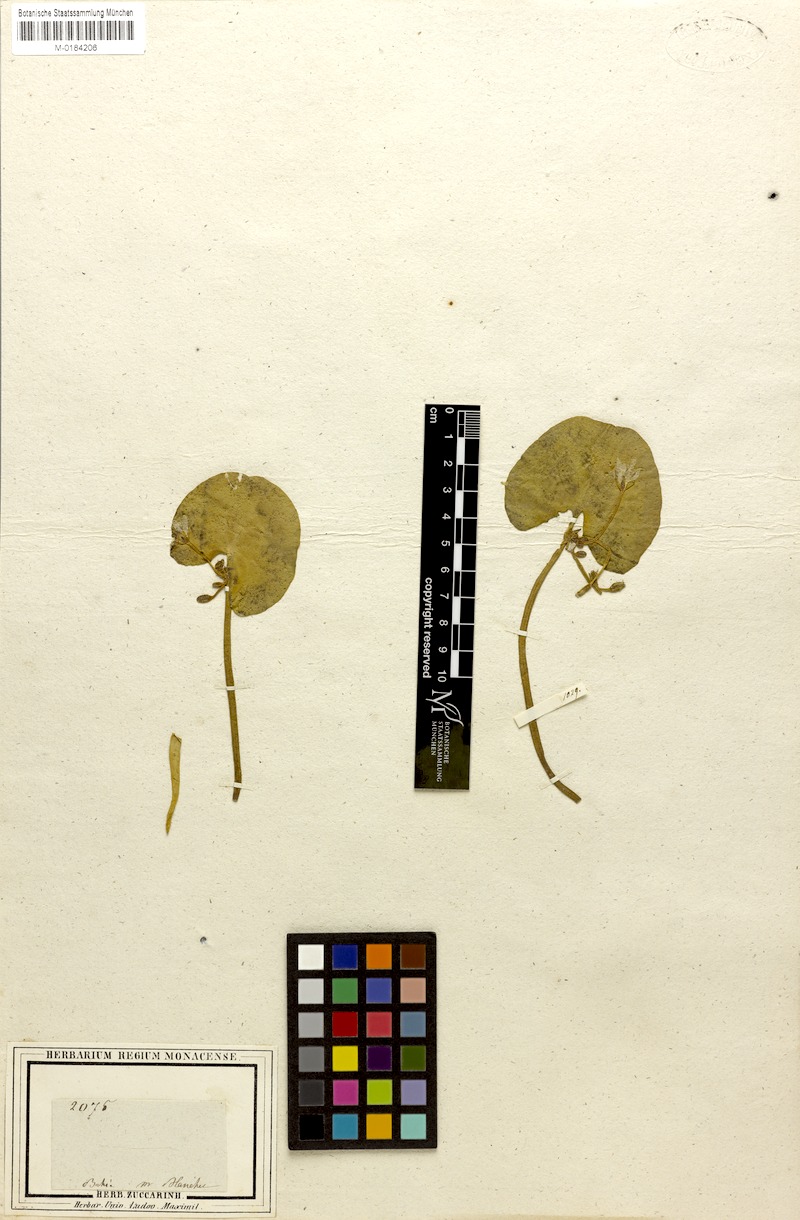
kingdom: Plantae
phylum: Tracheophyta
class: Magnoliopsida
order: Asterales
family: Menyanthaceae
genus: Nymphoides
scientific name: Nymphoides humboldtiana
